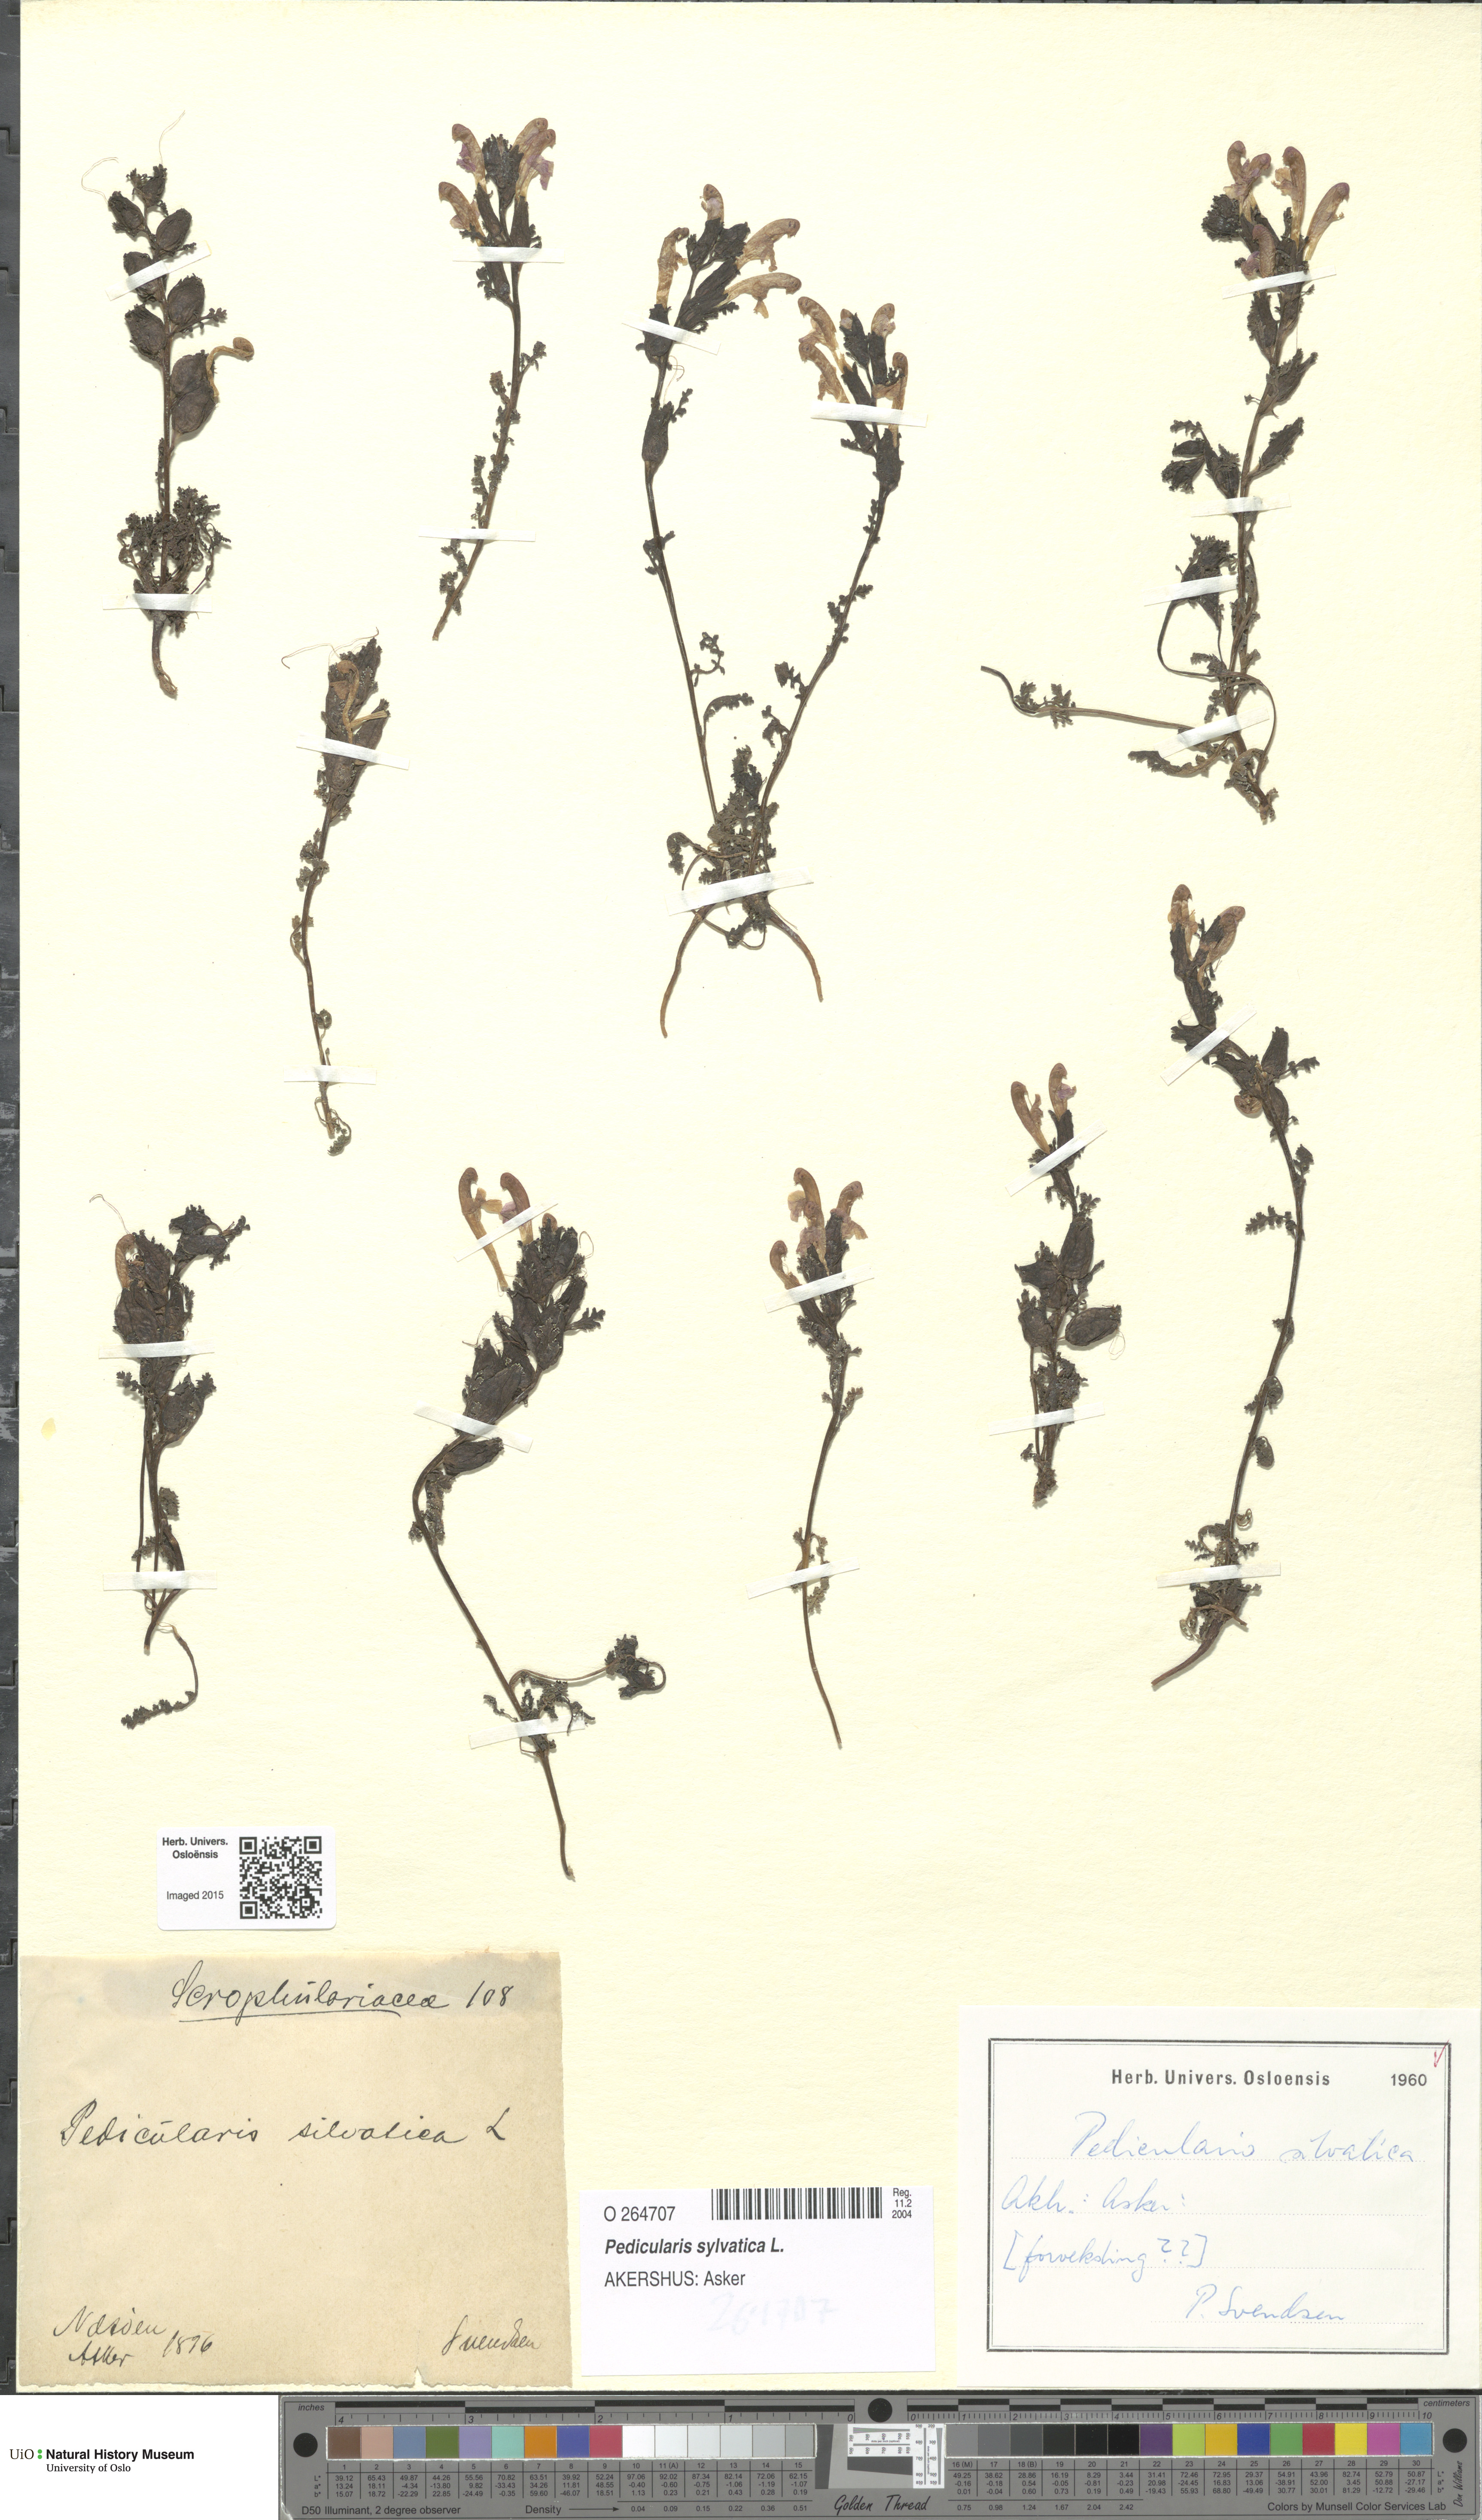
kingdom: Plantae
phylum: Tracheophyta
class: Magnoliopsida
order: Lamiales
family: Orobanchaceae
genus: Pedicularis
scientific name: Pedicularis sylvatica
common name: Lousewort
